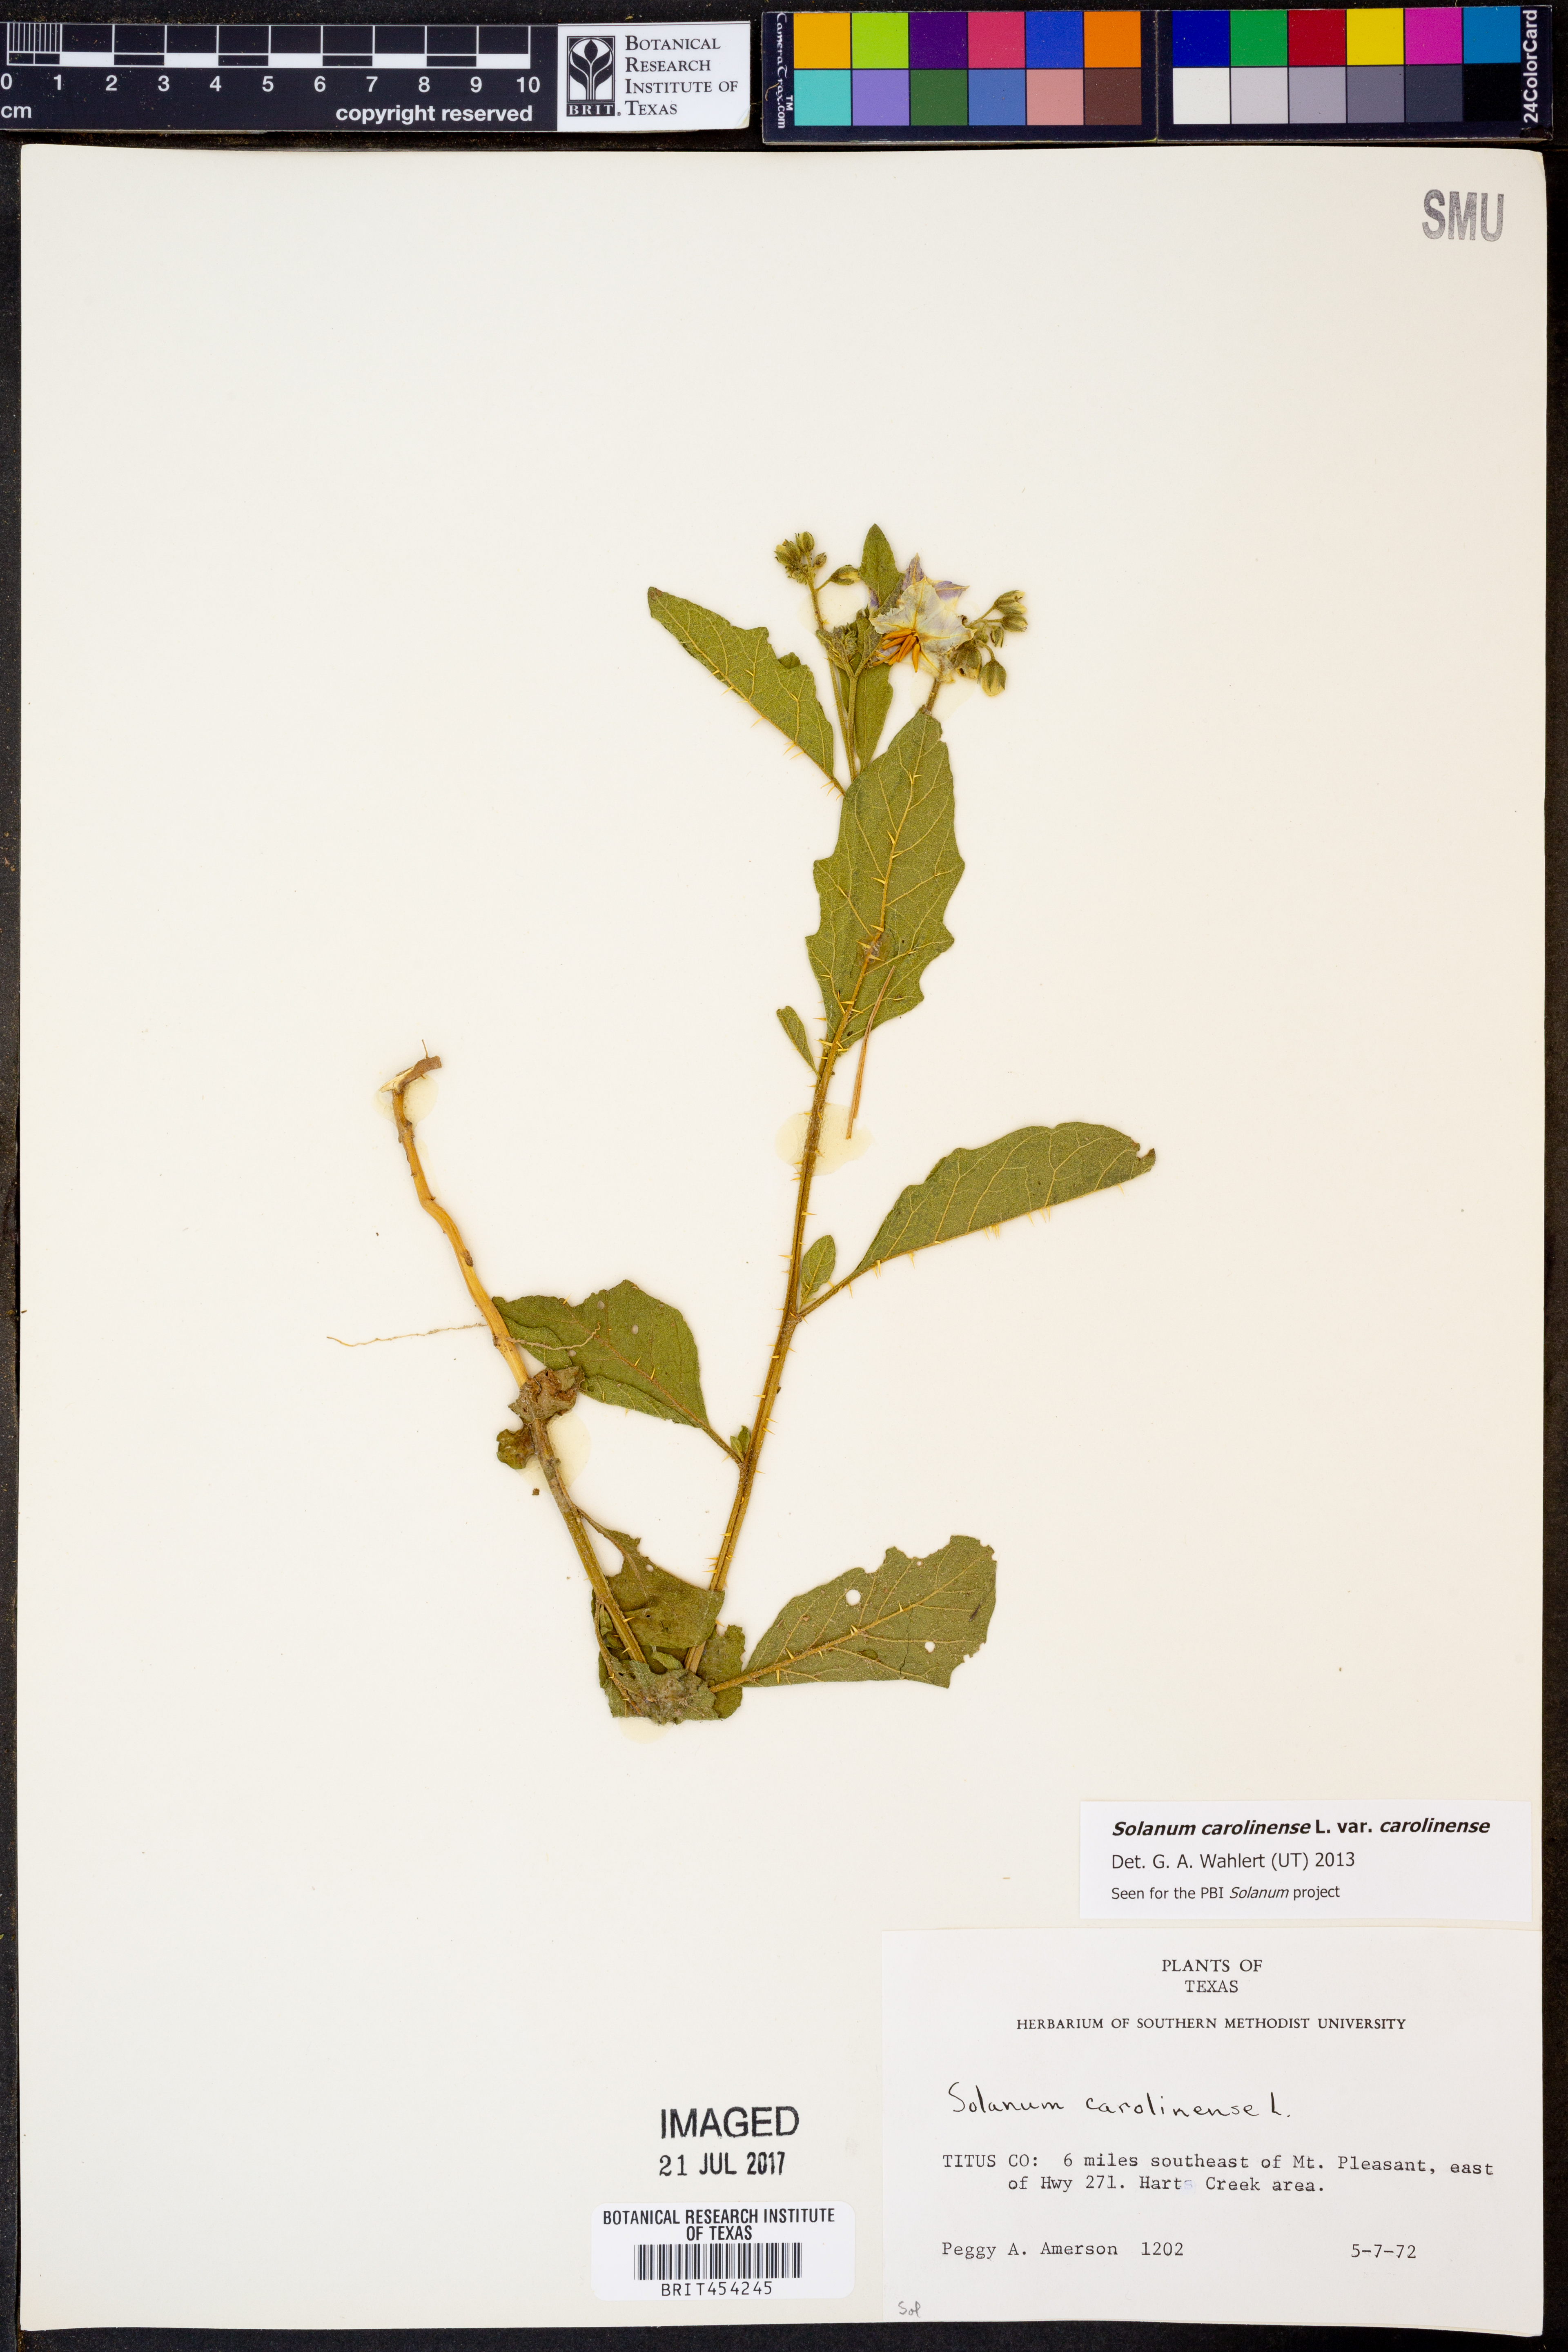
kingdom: Plantae
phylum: Tracheophyta
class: Magnoliopsida
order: Solanales
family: Solanaceae
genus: Solanum
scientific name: Solanum carolinense
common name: Horse-nettle
